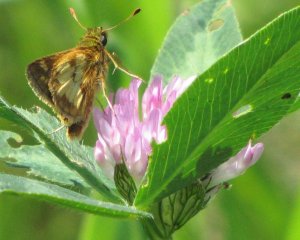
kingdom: Animalia
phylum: Arthropoda
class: Insecta
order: Lepidoptera
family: Hesperiidae
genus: Polites
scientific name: Polites coras
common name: Peck's Skipper
